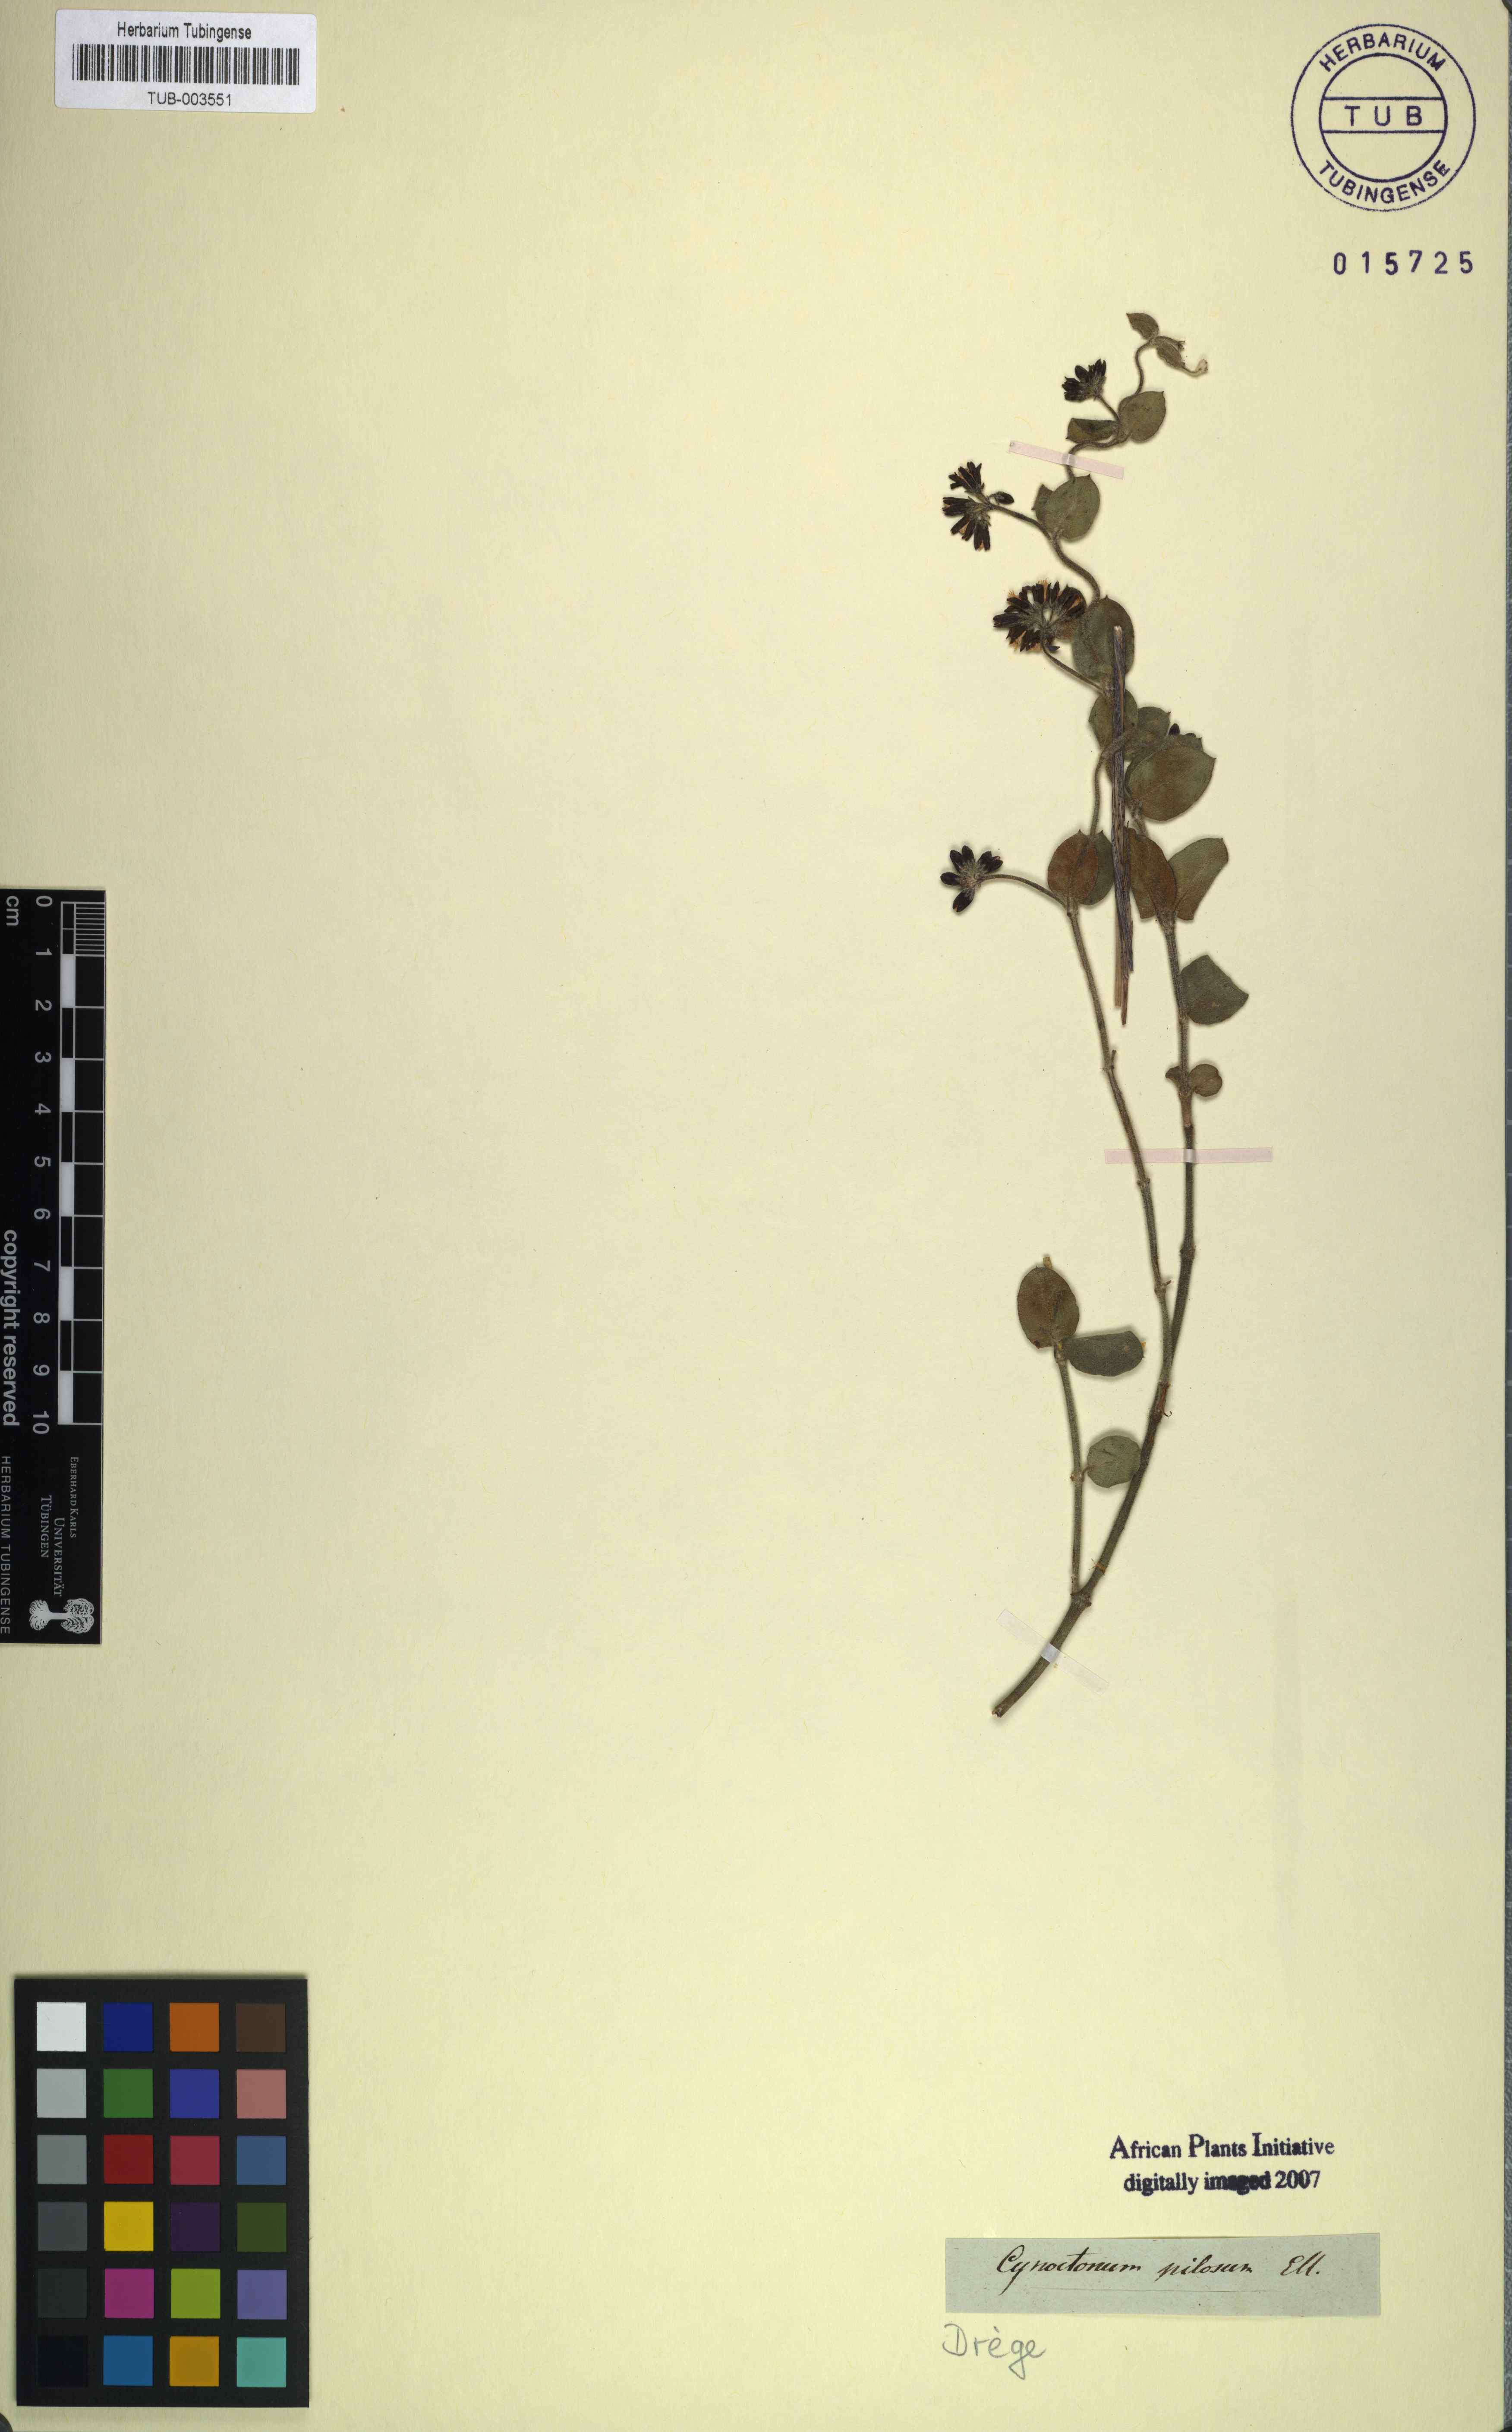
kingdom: Plantae
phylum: Tracheophyta
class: Magnoliopsida
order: Gentianales
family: Apocynaceae
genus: Cynanchum
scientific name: Cynanchum africanum
